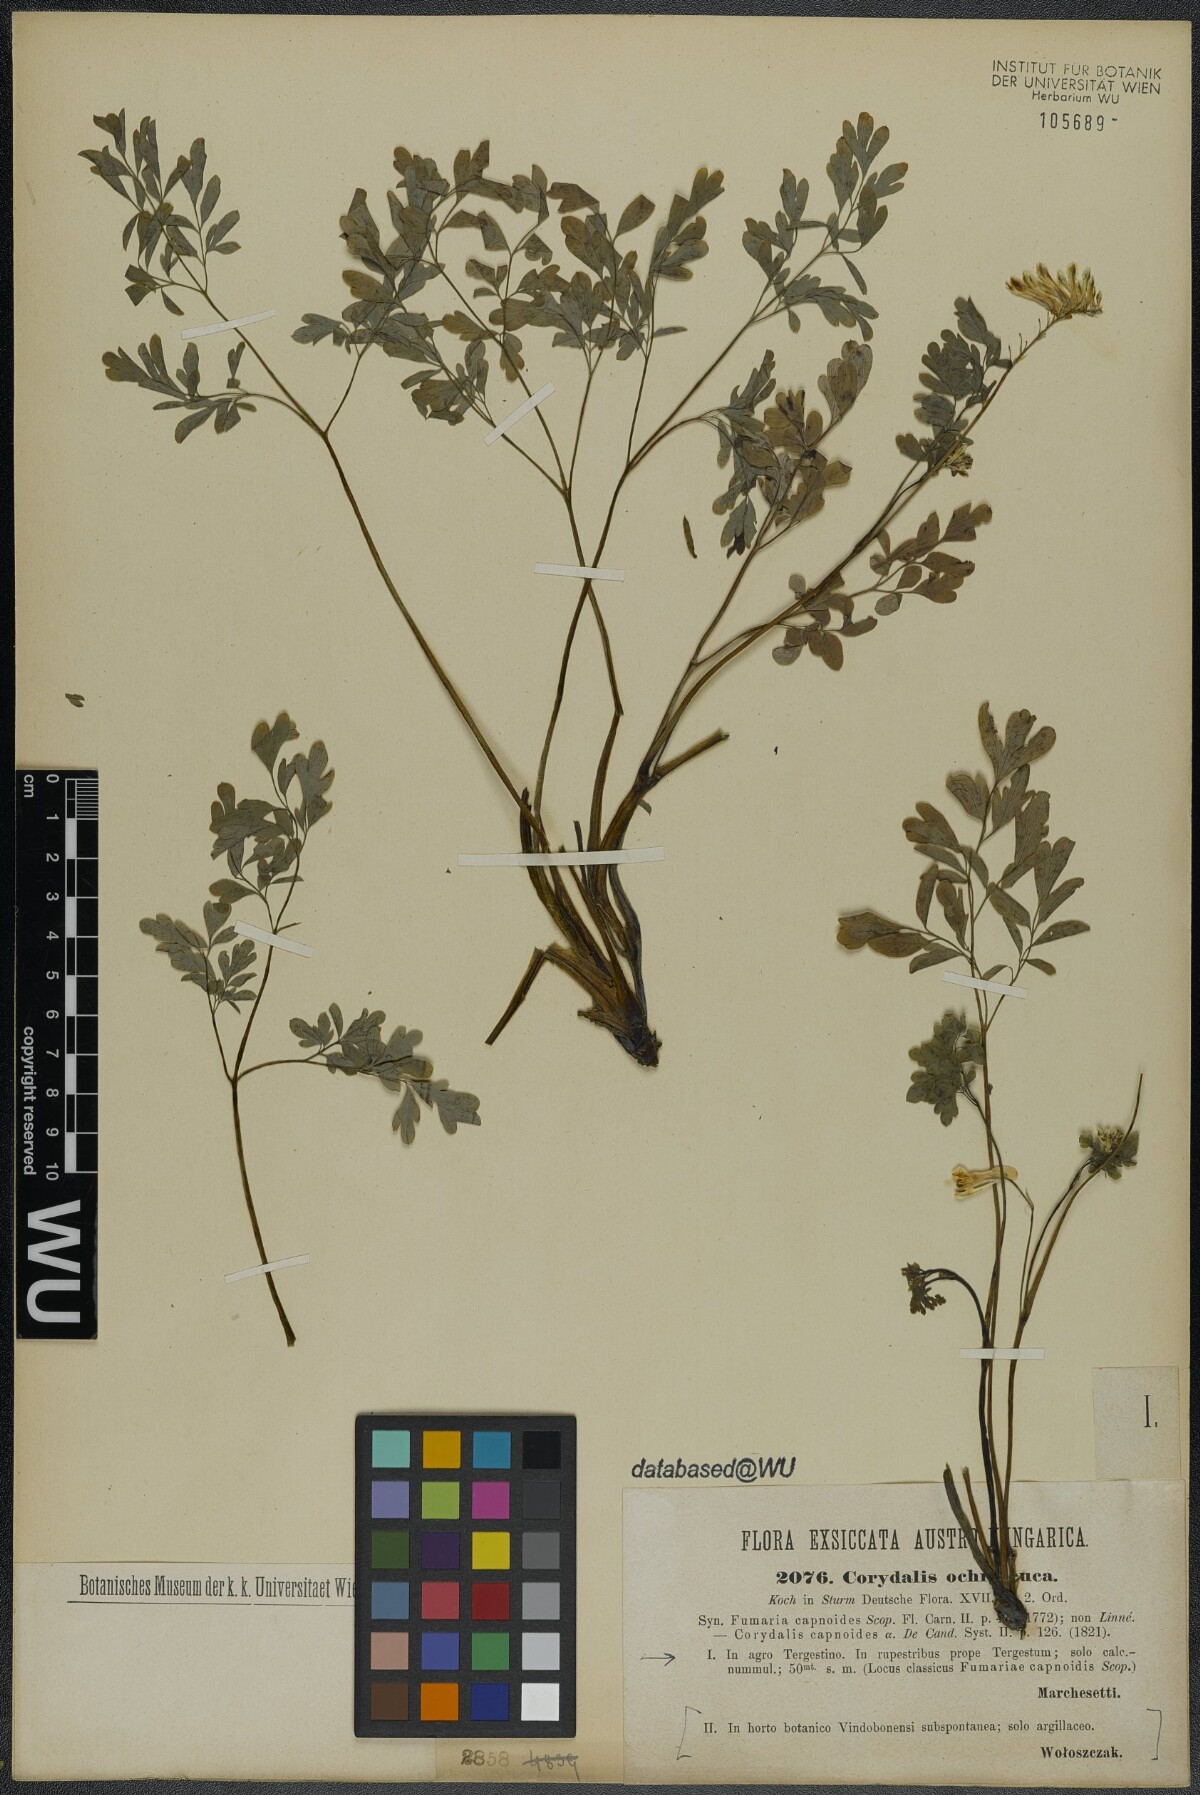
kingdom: Plantae
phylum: Tracheophyta
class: Magnoliopsida
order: Ranunculales
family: Papaveraceae
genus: Pseudofumaria
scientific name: Pseudofumaria alba
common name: Pale corydalis
